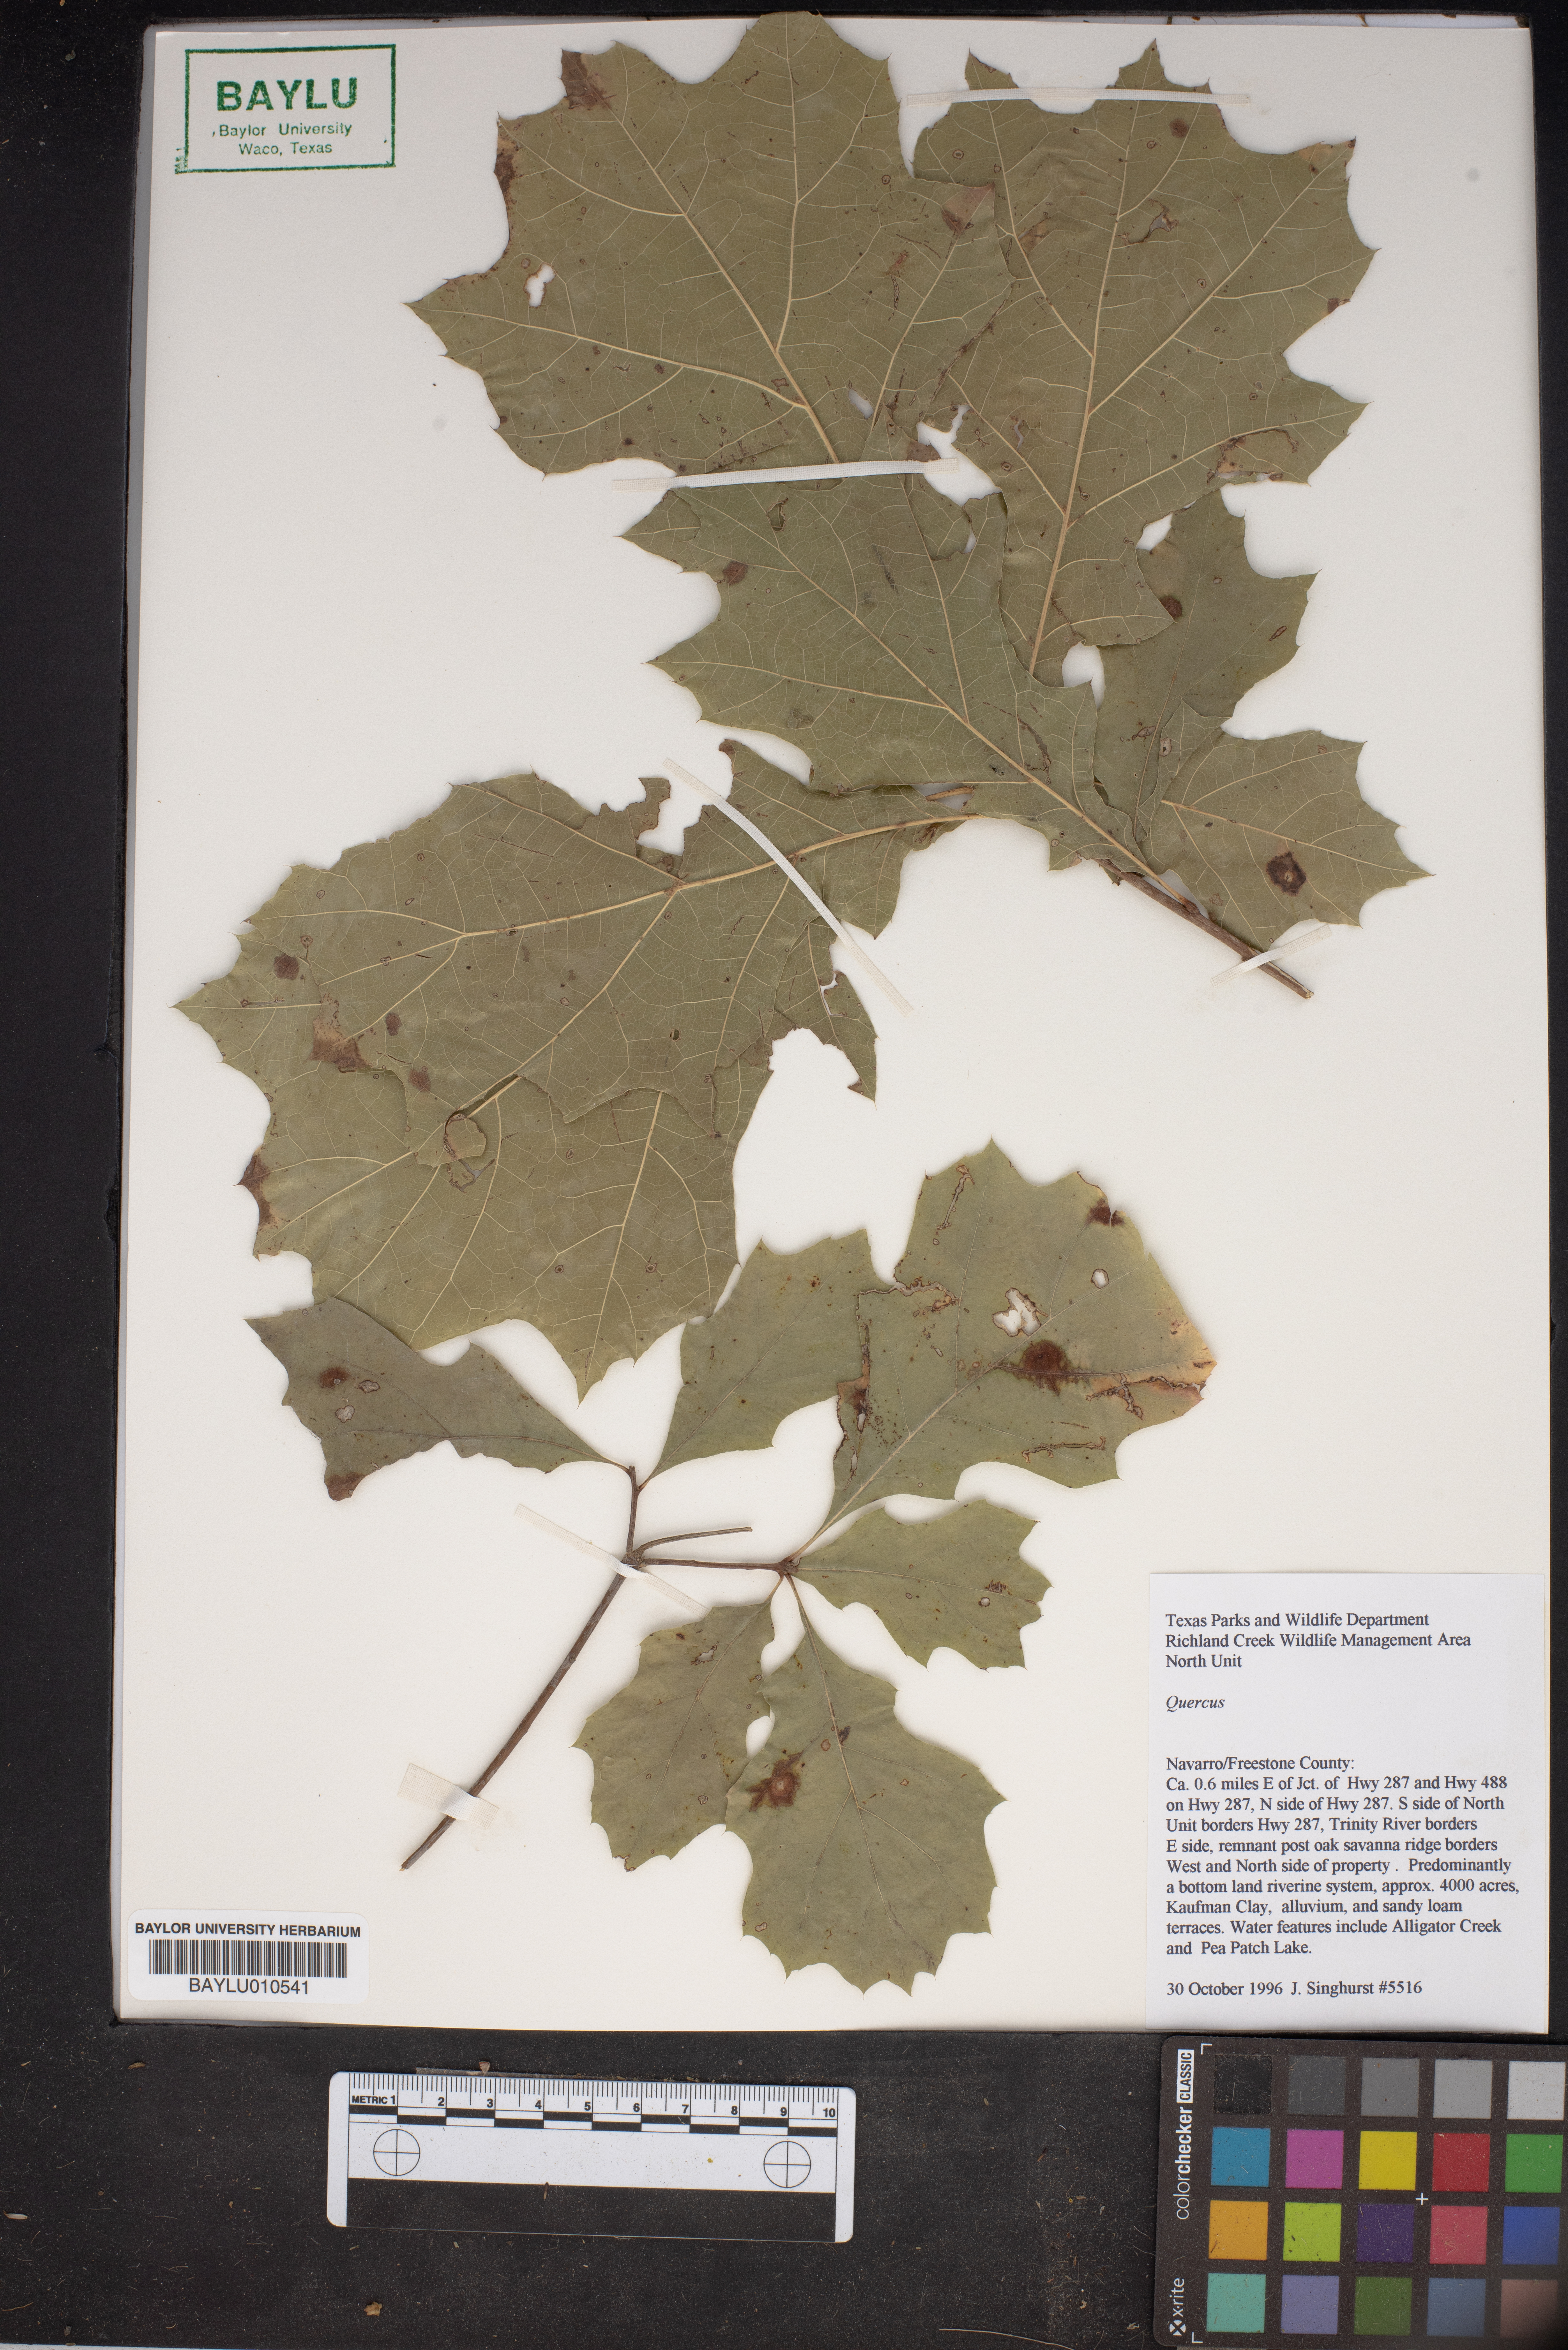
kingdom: Plantae
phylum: Tracheophyta
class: Magnoliopsida
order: Fagales
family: Fagaceae
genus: Quercus
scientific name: Quercus
